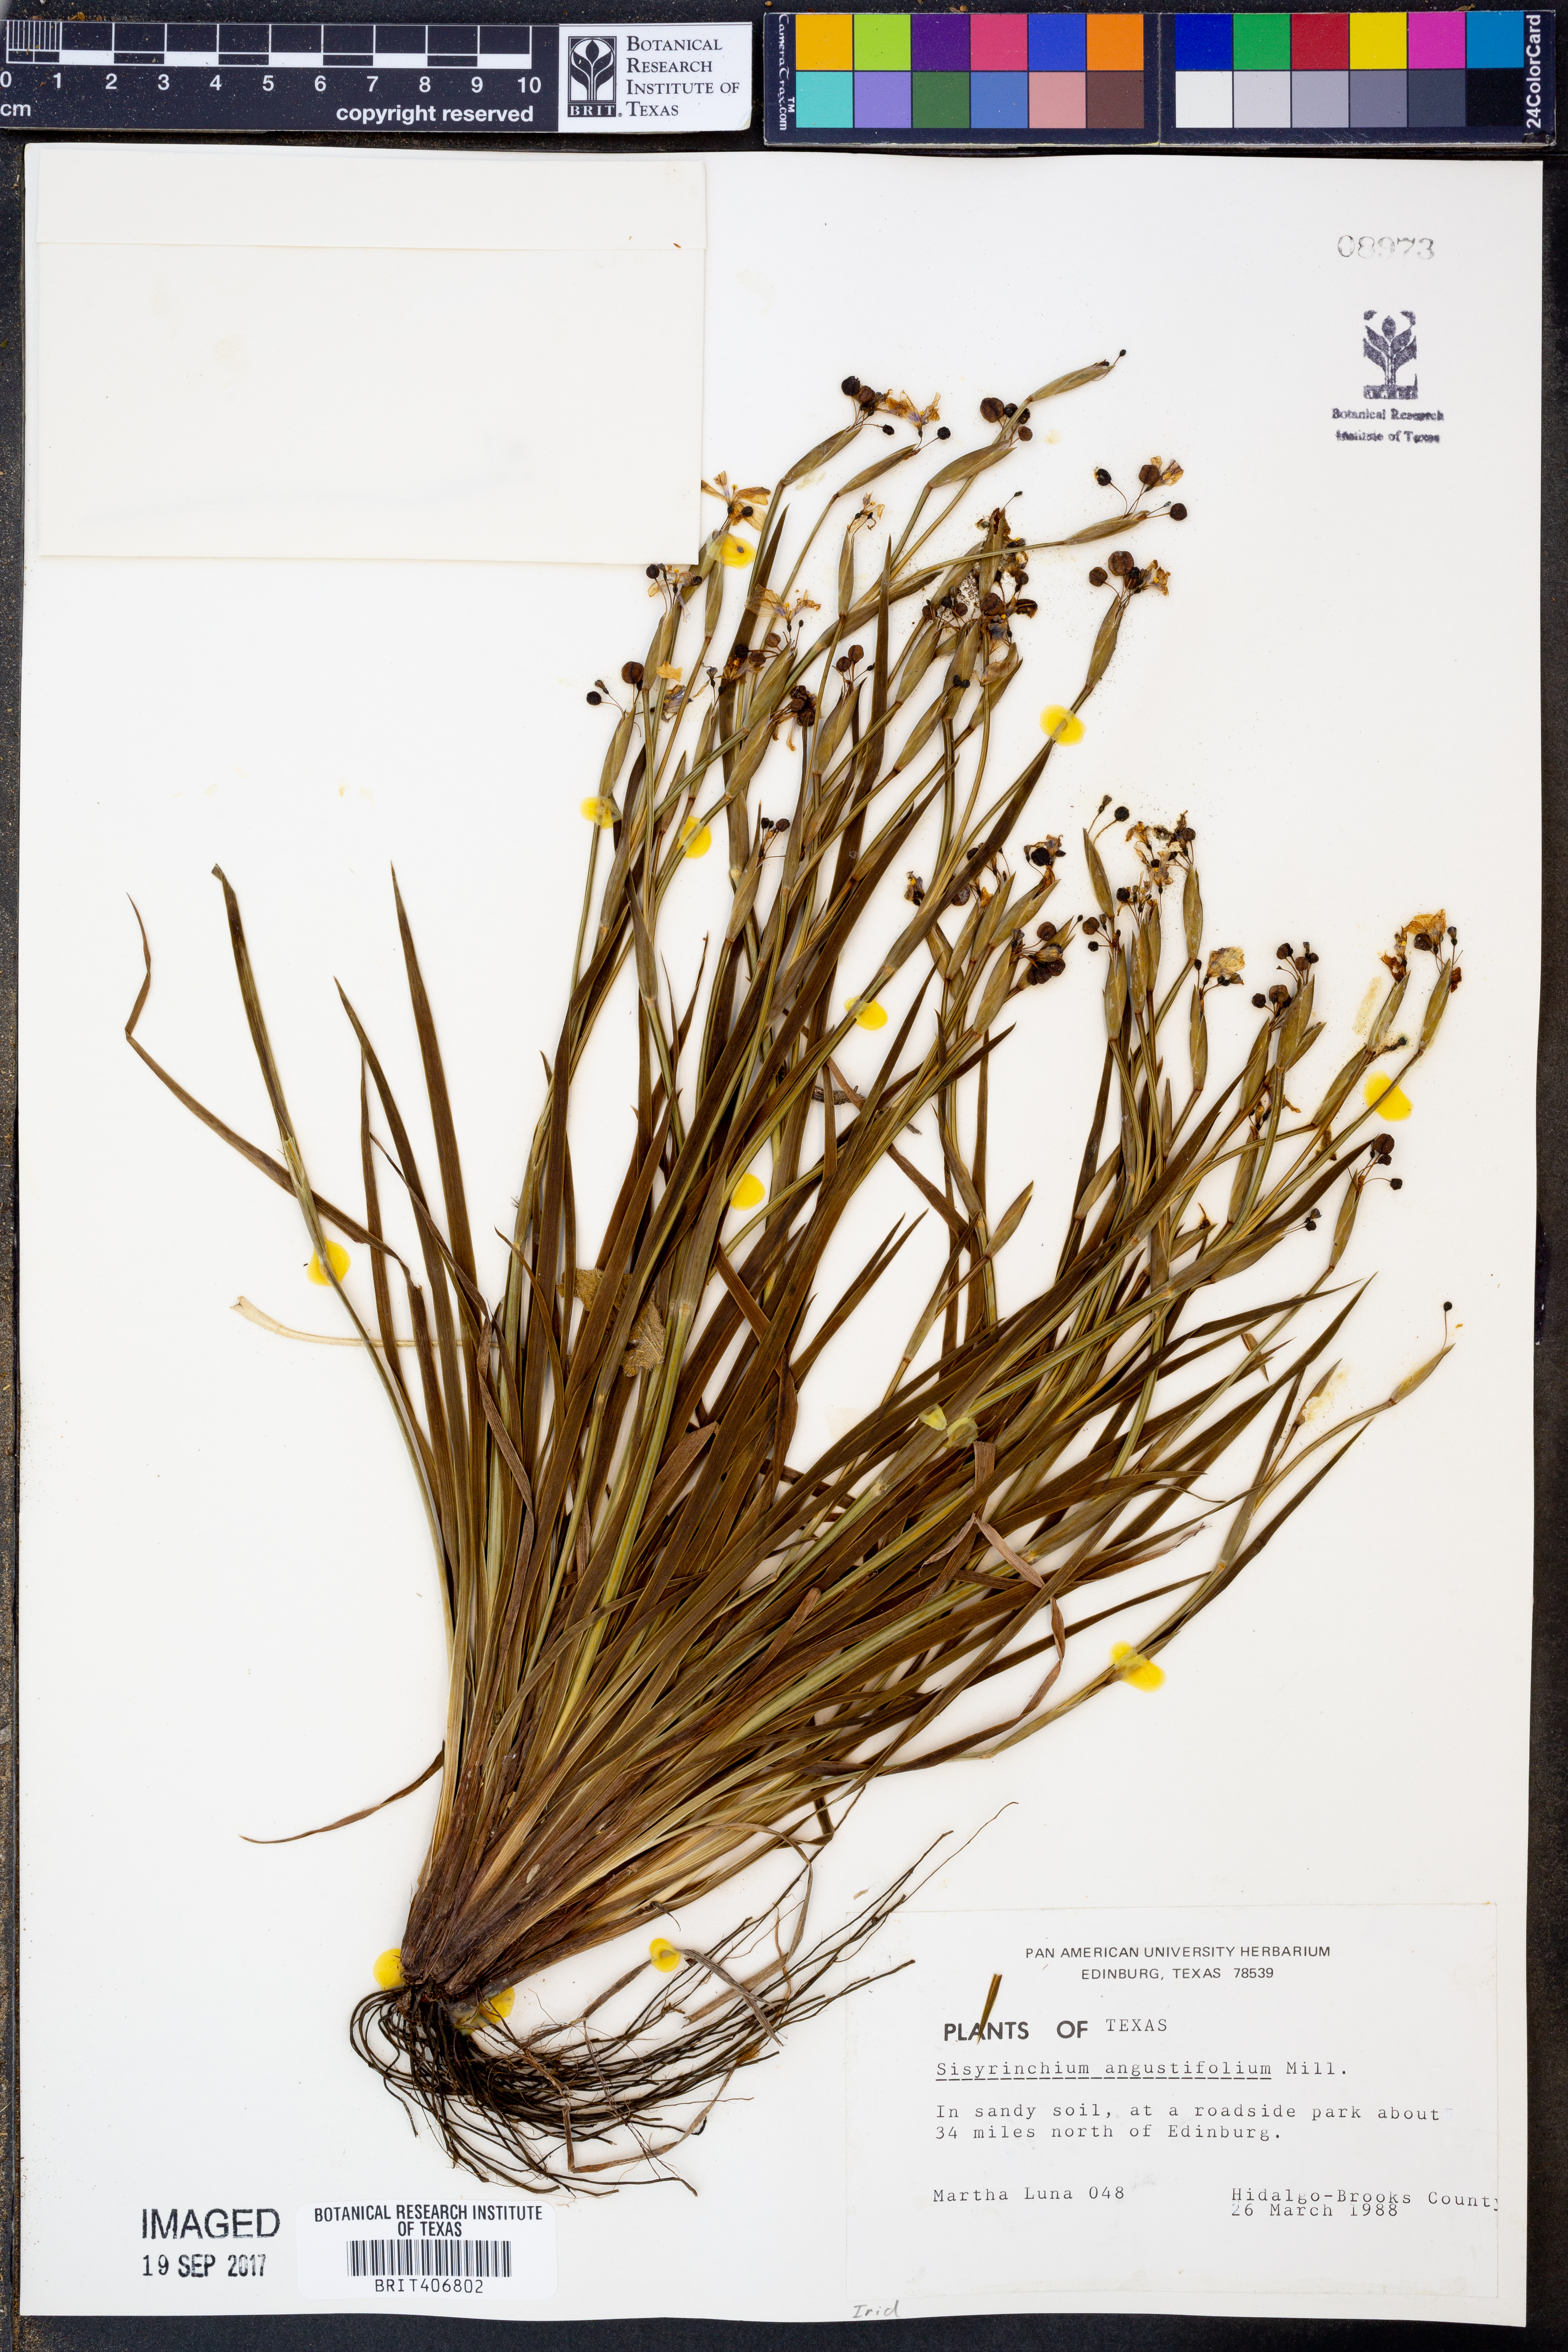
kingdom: Plantae
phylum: Tracheophyta
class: Liliopsida
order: Asparagales
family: Iridaceae
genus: Sisyrinchium
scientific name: Sisyrinchium angustifolium
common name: Narrow-leaf blue-eyed-grass
